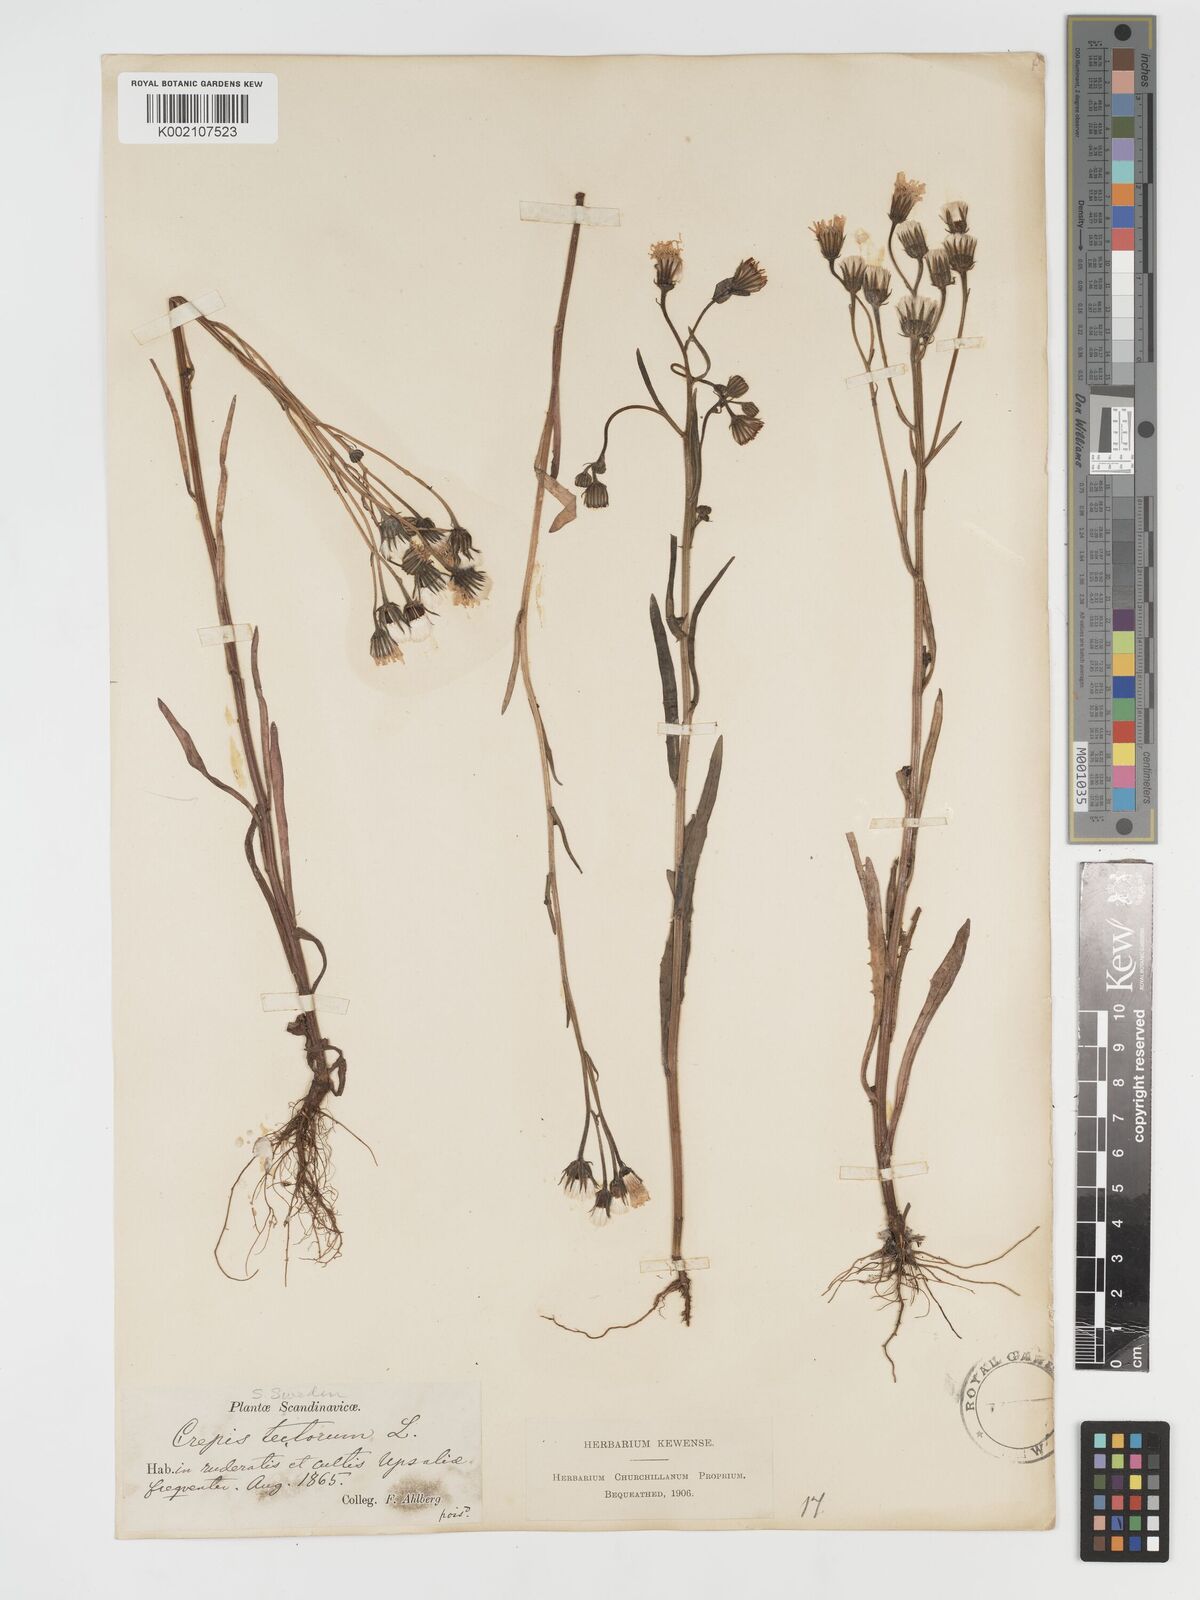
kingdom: Plantae
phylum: Tracheophyta
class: Magnoliopsida
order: Asterales
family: Asteraceae
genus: Crepis
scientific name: Crepis tectorum
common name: Narrow-leaved hawk's-beard
